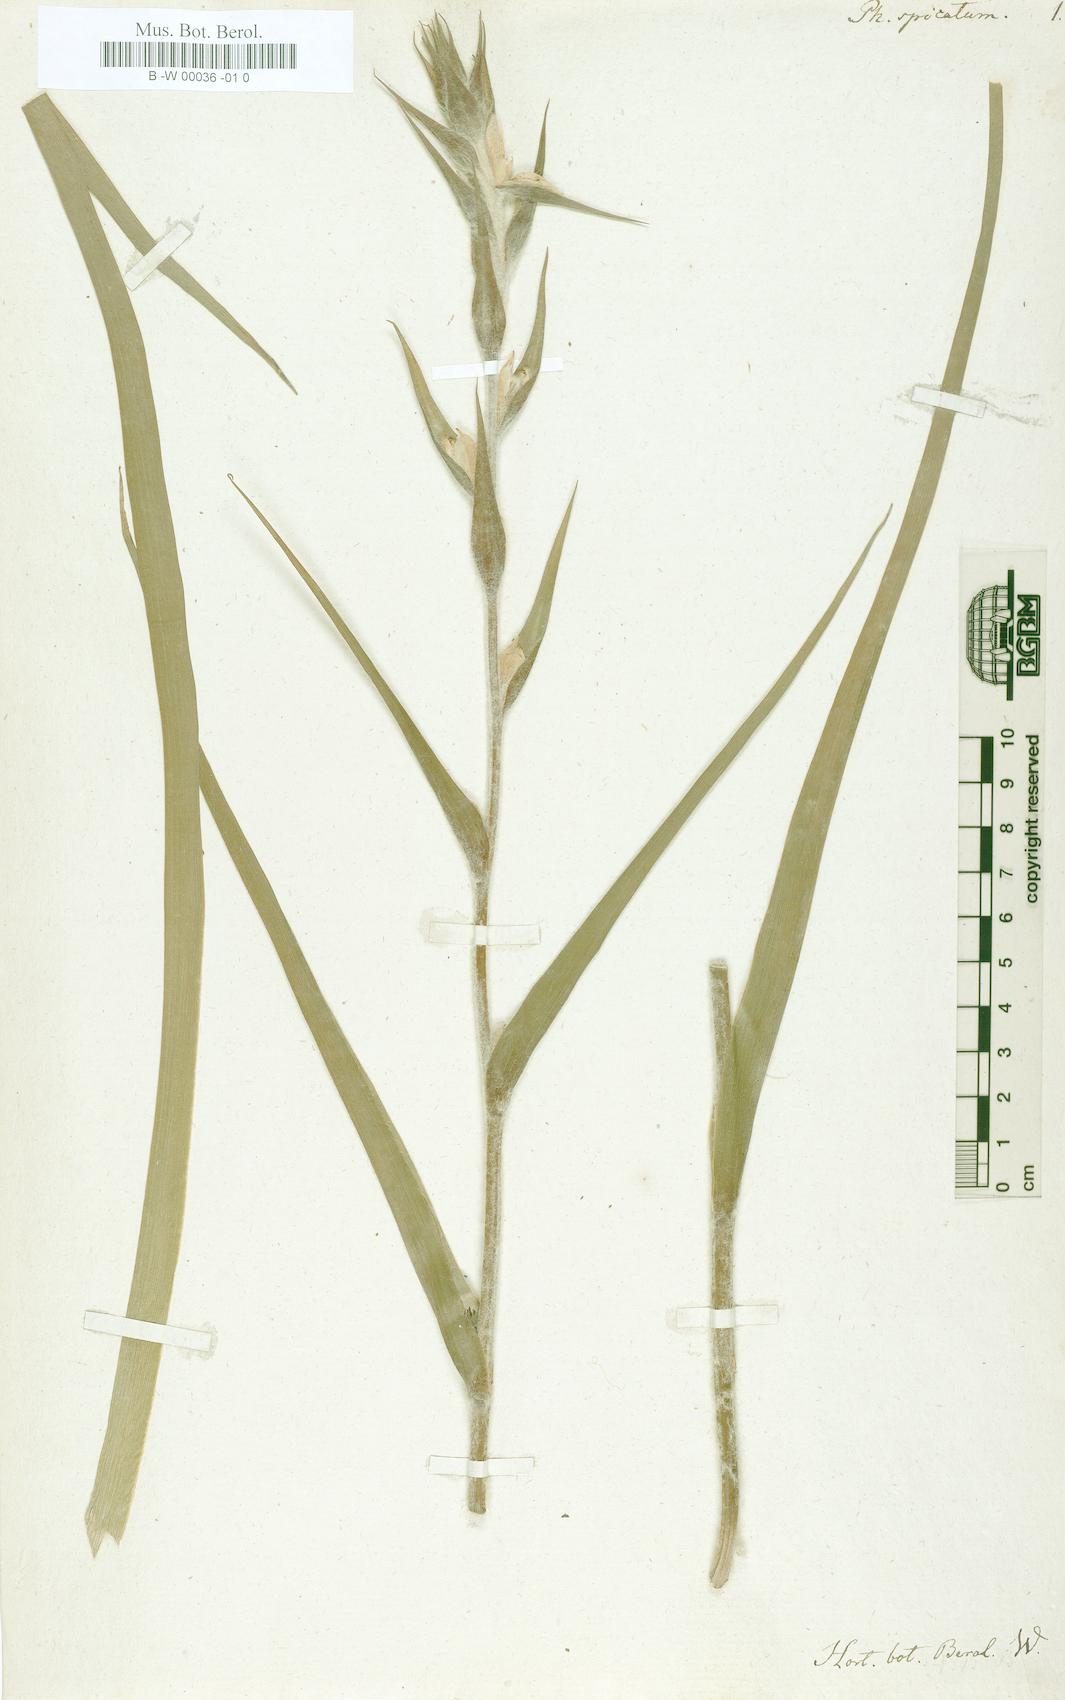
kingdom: Plantae
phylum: Tracheophyta
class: Liliopsida
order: Commelinales
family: Philydraceae
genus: Philydrum
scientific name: Philydrum
